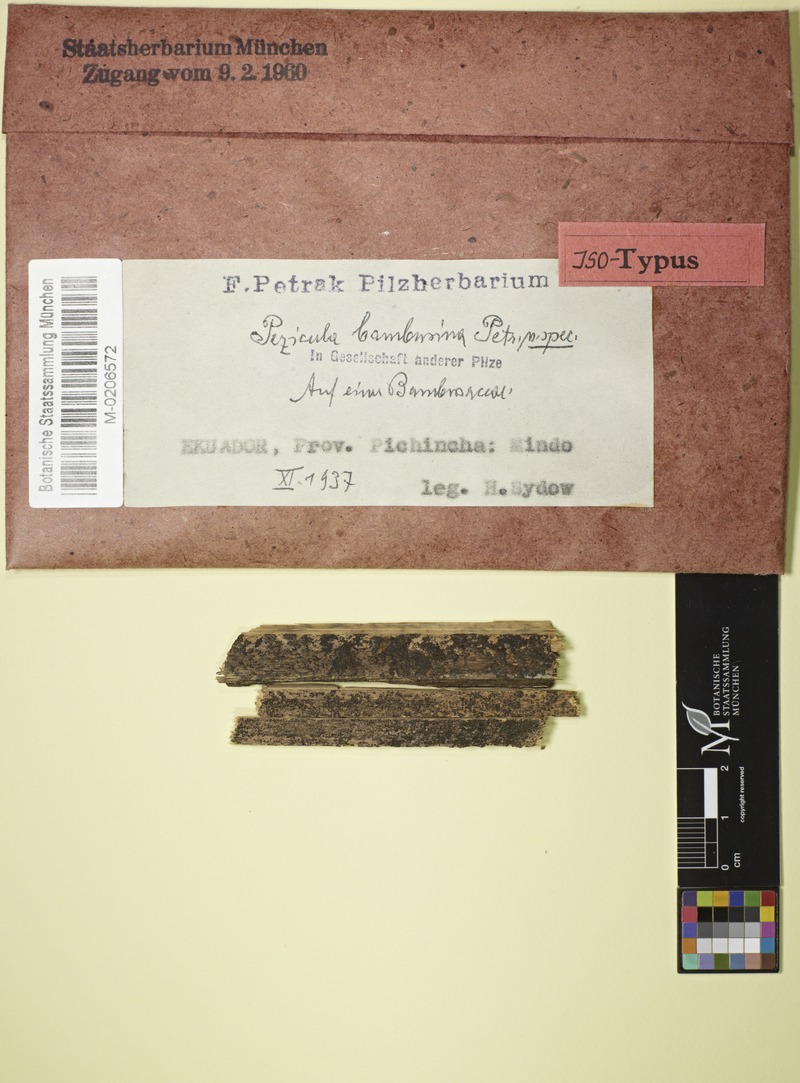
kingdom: Fungi
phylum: Ascomycota
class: Leotiomycetes
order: Helotiales
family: Dermateaceae
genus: Pezicula
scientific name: Pezicula bambusina
